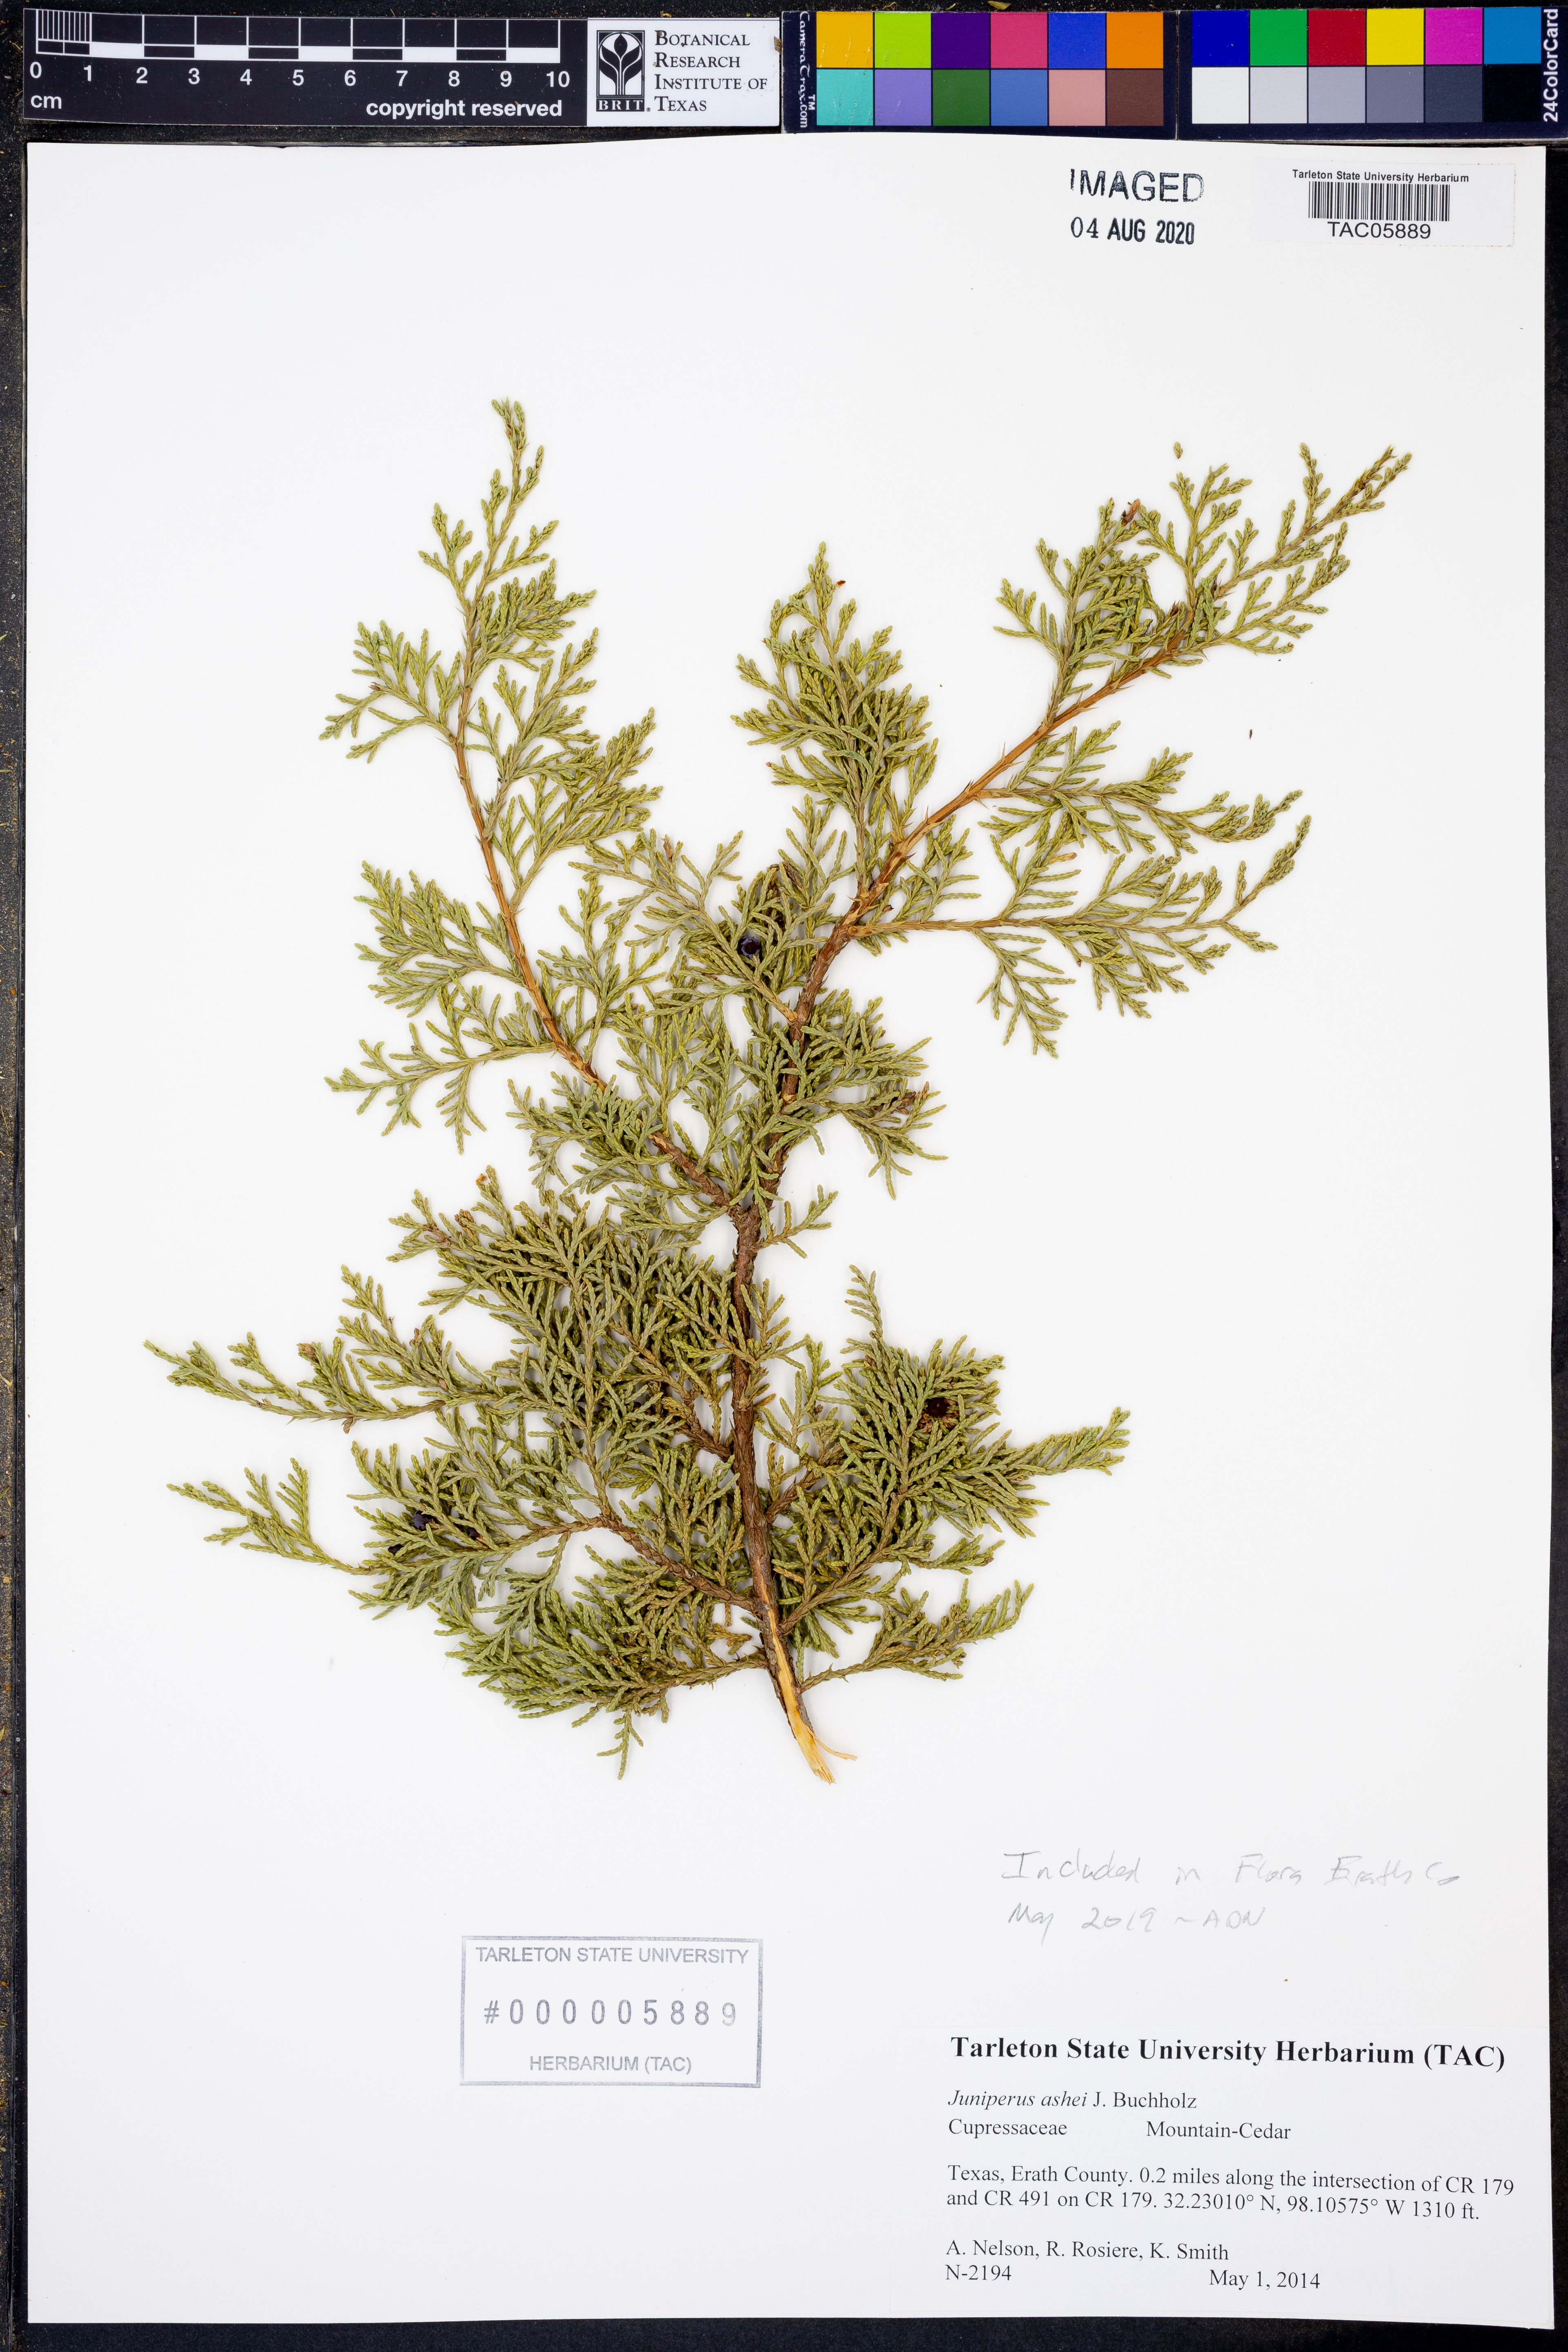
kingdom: Plantae
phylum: Tracheophyta
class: Pinopsida
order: Pinales
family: Cupressaceae
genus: Juniperus
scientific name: Juniperus ashei
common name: Mexican juniper
